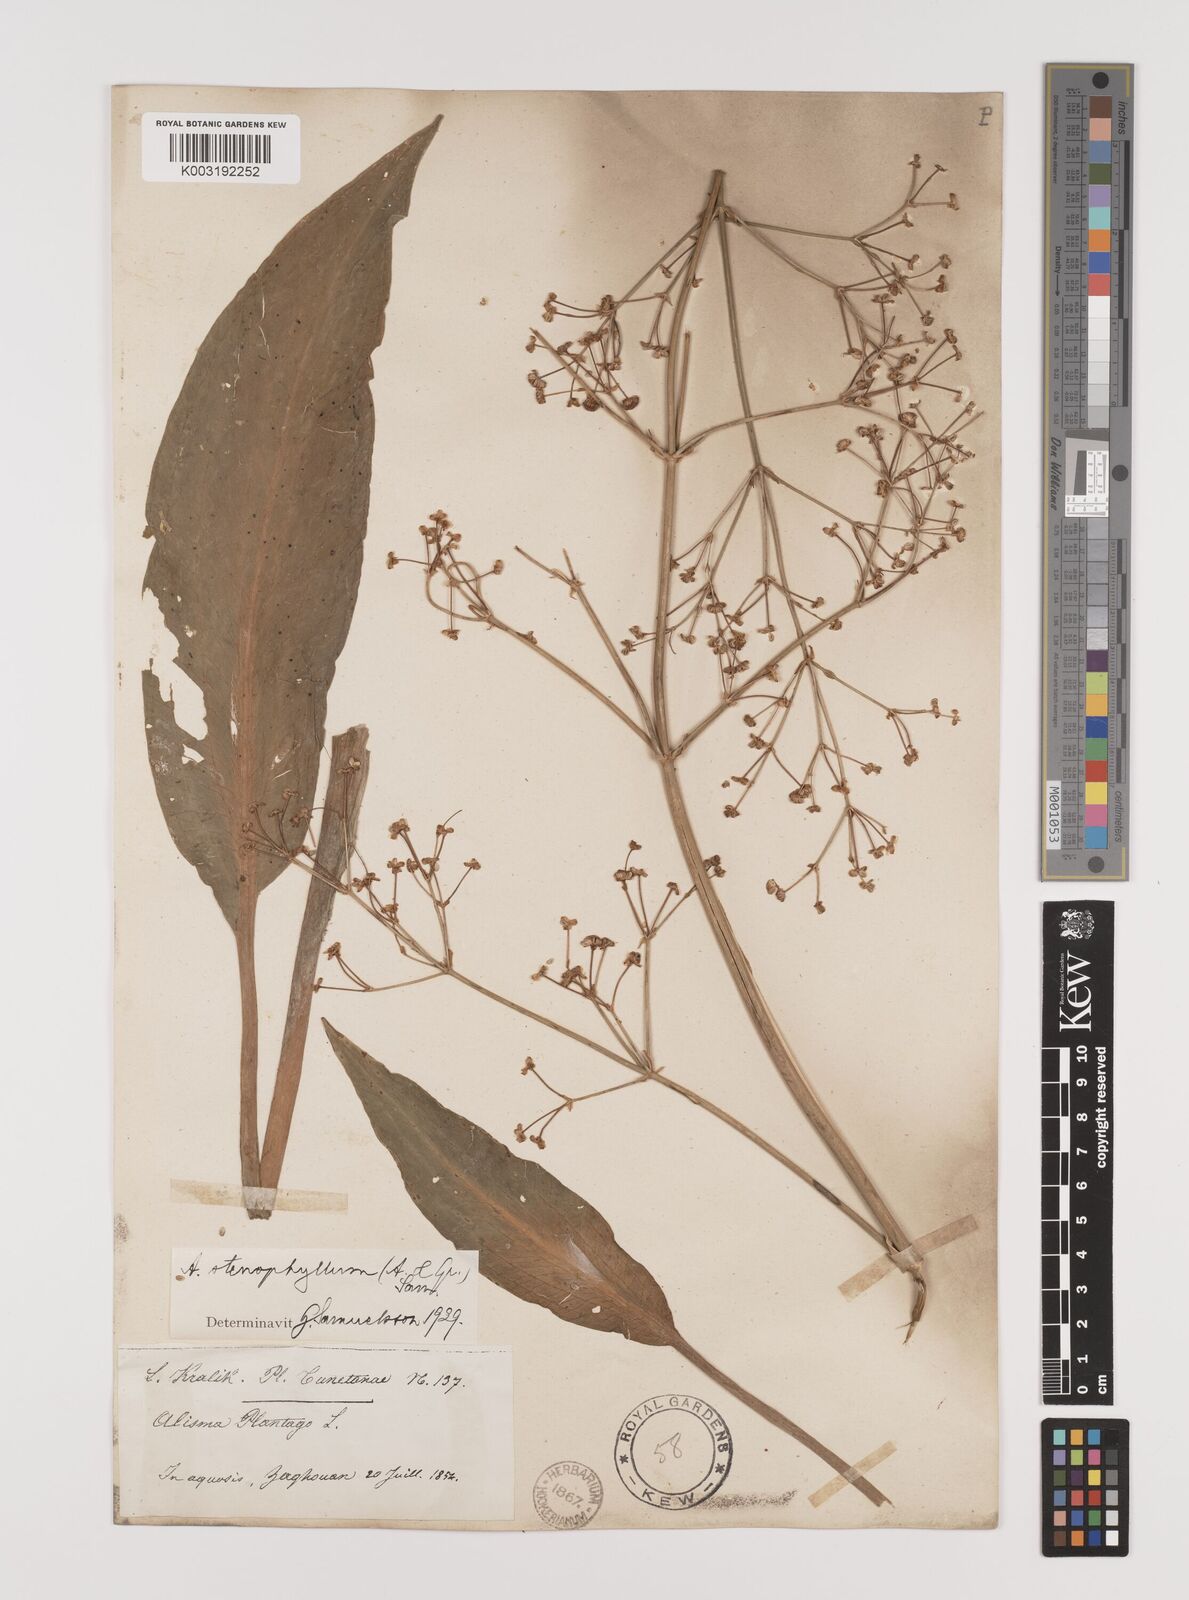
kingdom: Plantae
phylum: Tracheophyta
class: Liliopsida
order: Alismatales
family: Alismataceae
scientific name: Alismataceae
